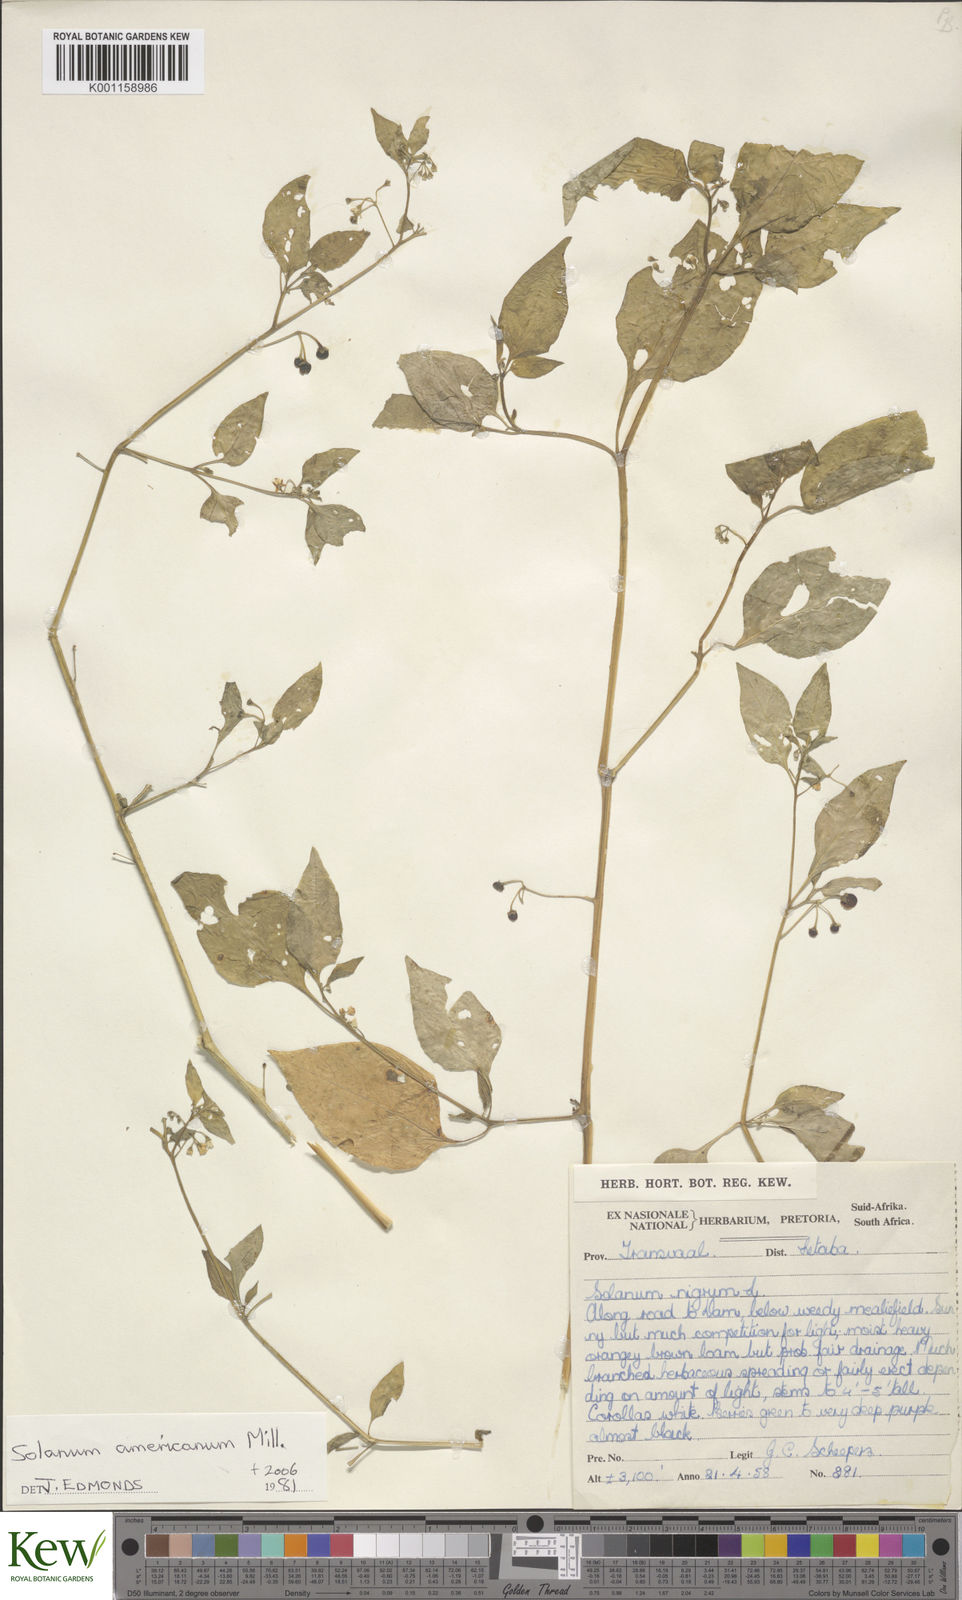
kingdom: Plantae
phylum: Tracheophyta
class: Magnoliopsida
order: Solanales
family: Solanaceae
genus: Solanum
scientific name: Solanum americanum
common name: American black nightshade
